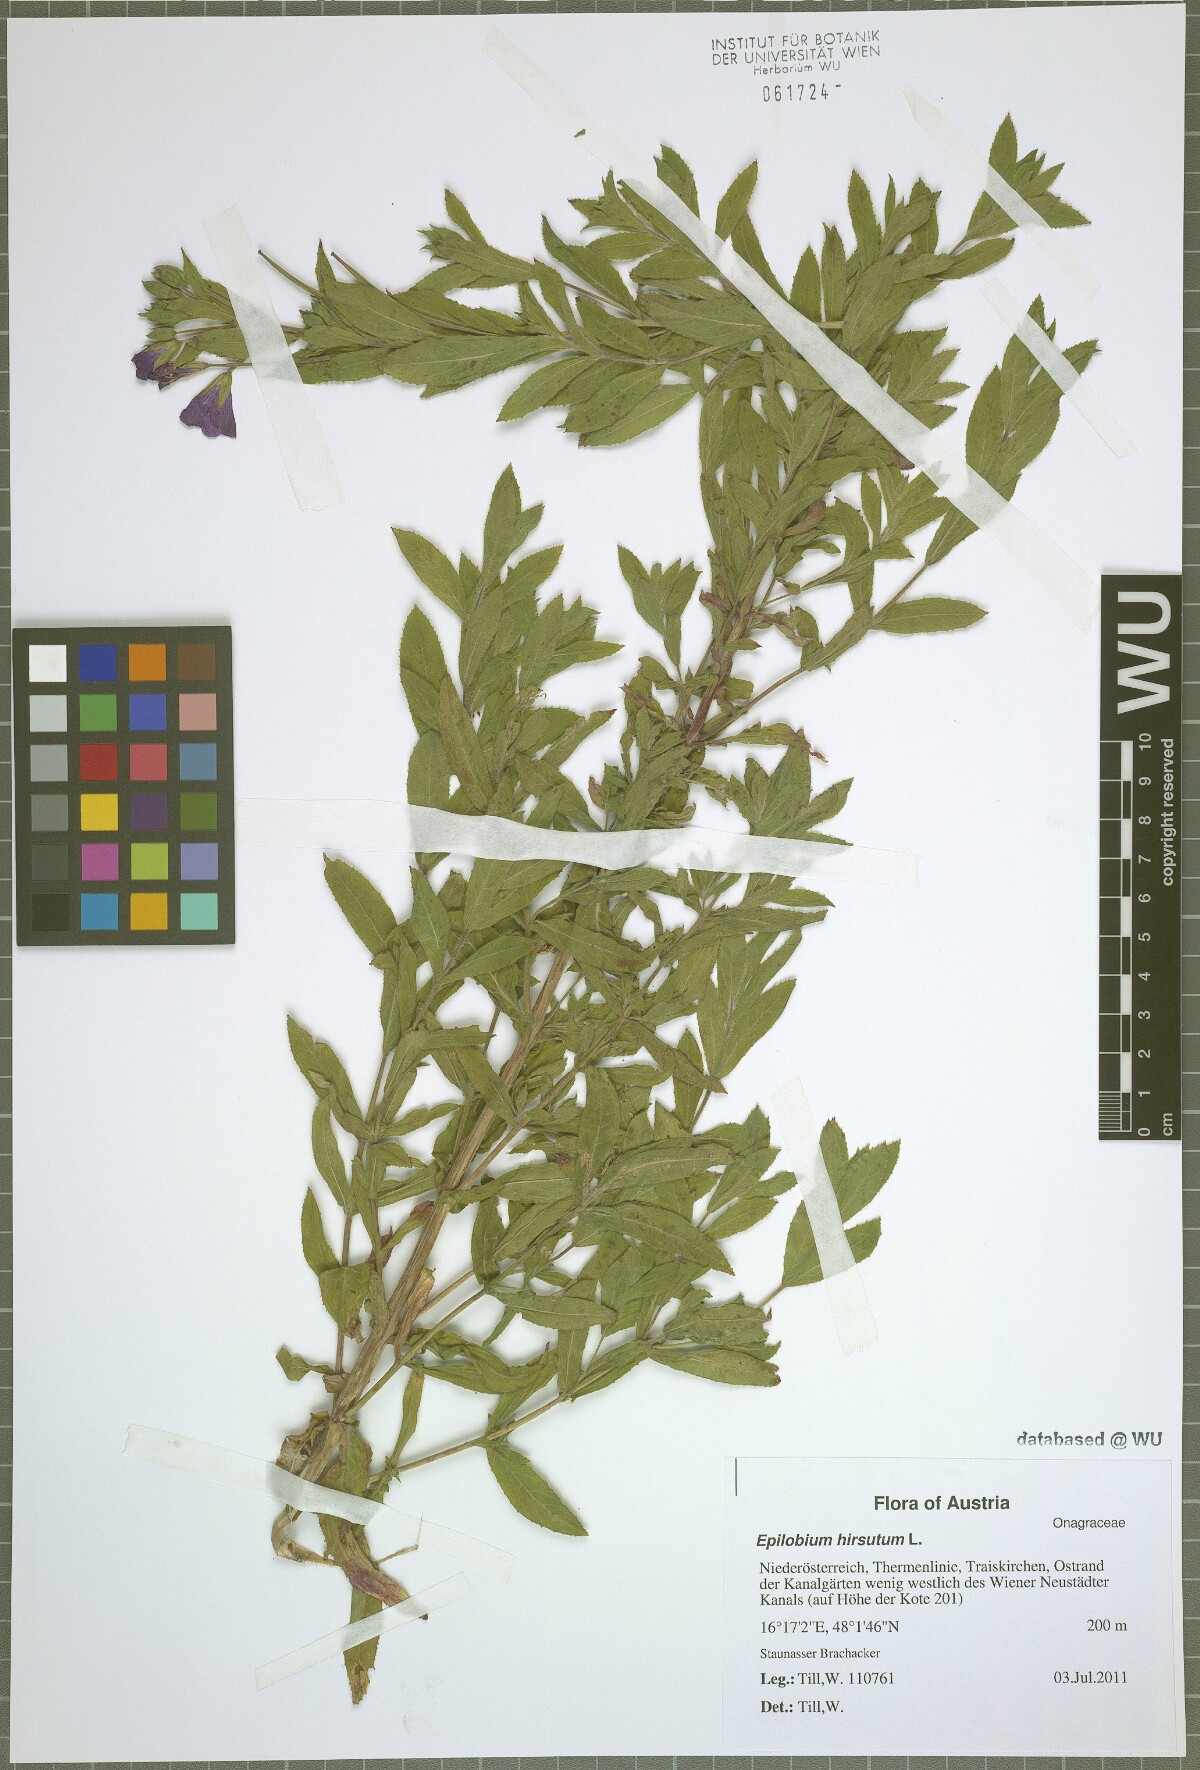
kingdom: Plantae
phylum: Tracheophyta
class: Magnoliopsida
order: Myrtales
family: Onagraceae
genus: Epilobium
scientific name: Epilobium hirsutum
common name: Great willowherb
